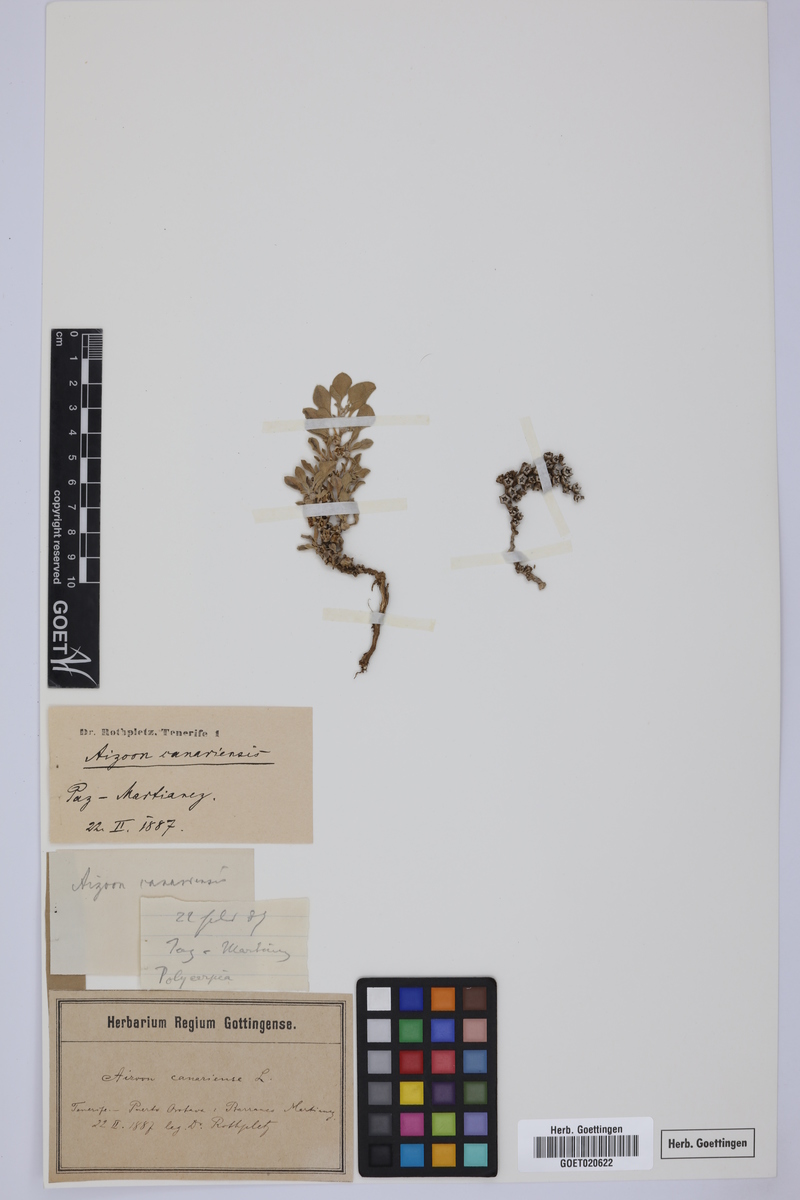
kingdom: Plantae
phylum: Tracheophyta
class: Magnoliopsida
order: Caryophyllales
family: Aizoaceae
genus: Aizoon
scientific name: Aizoon canariense
